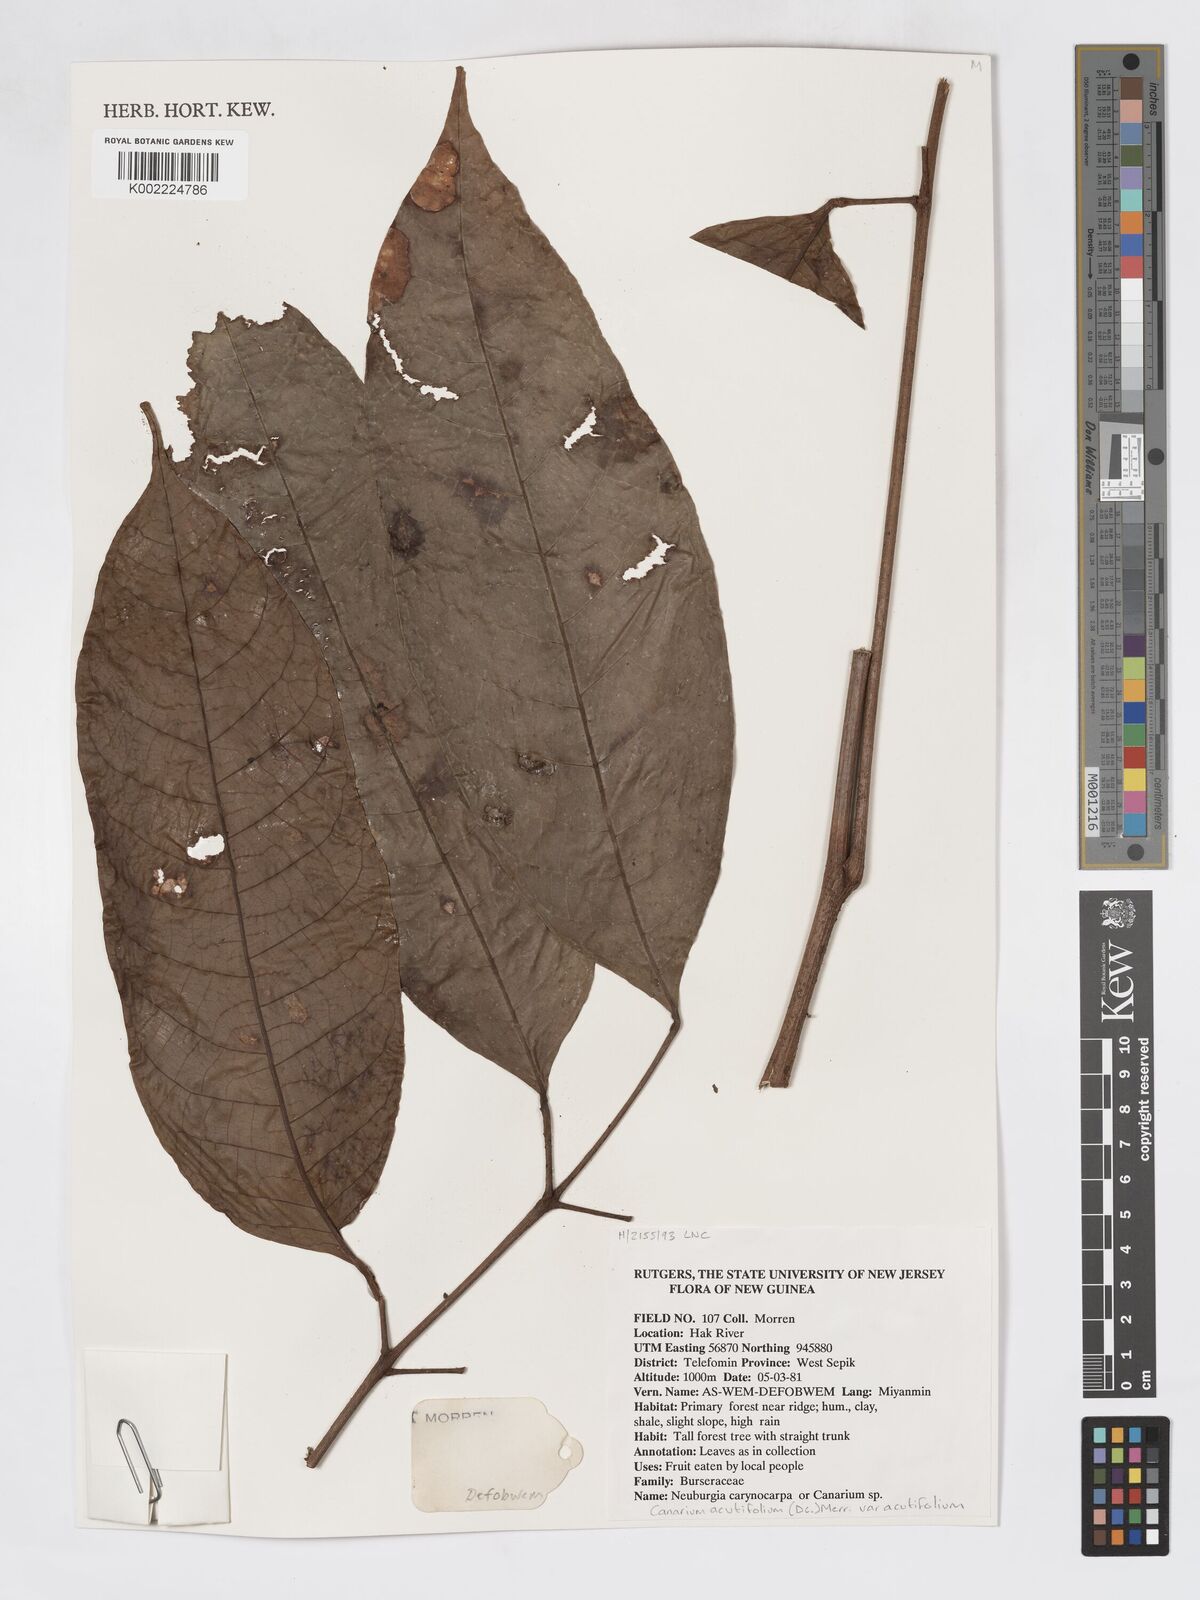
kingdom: Plantae
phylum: Tracheophyta
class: Magnoliopsida
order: Sapindales
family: Burseraceae
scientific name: Burseraceae
